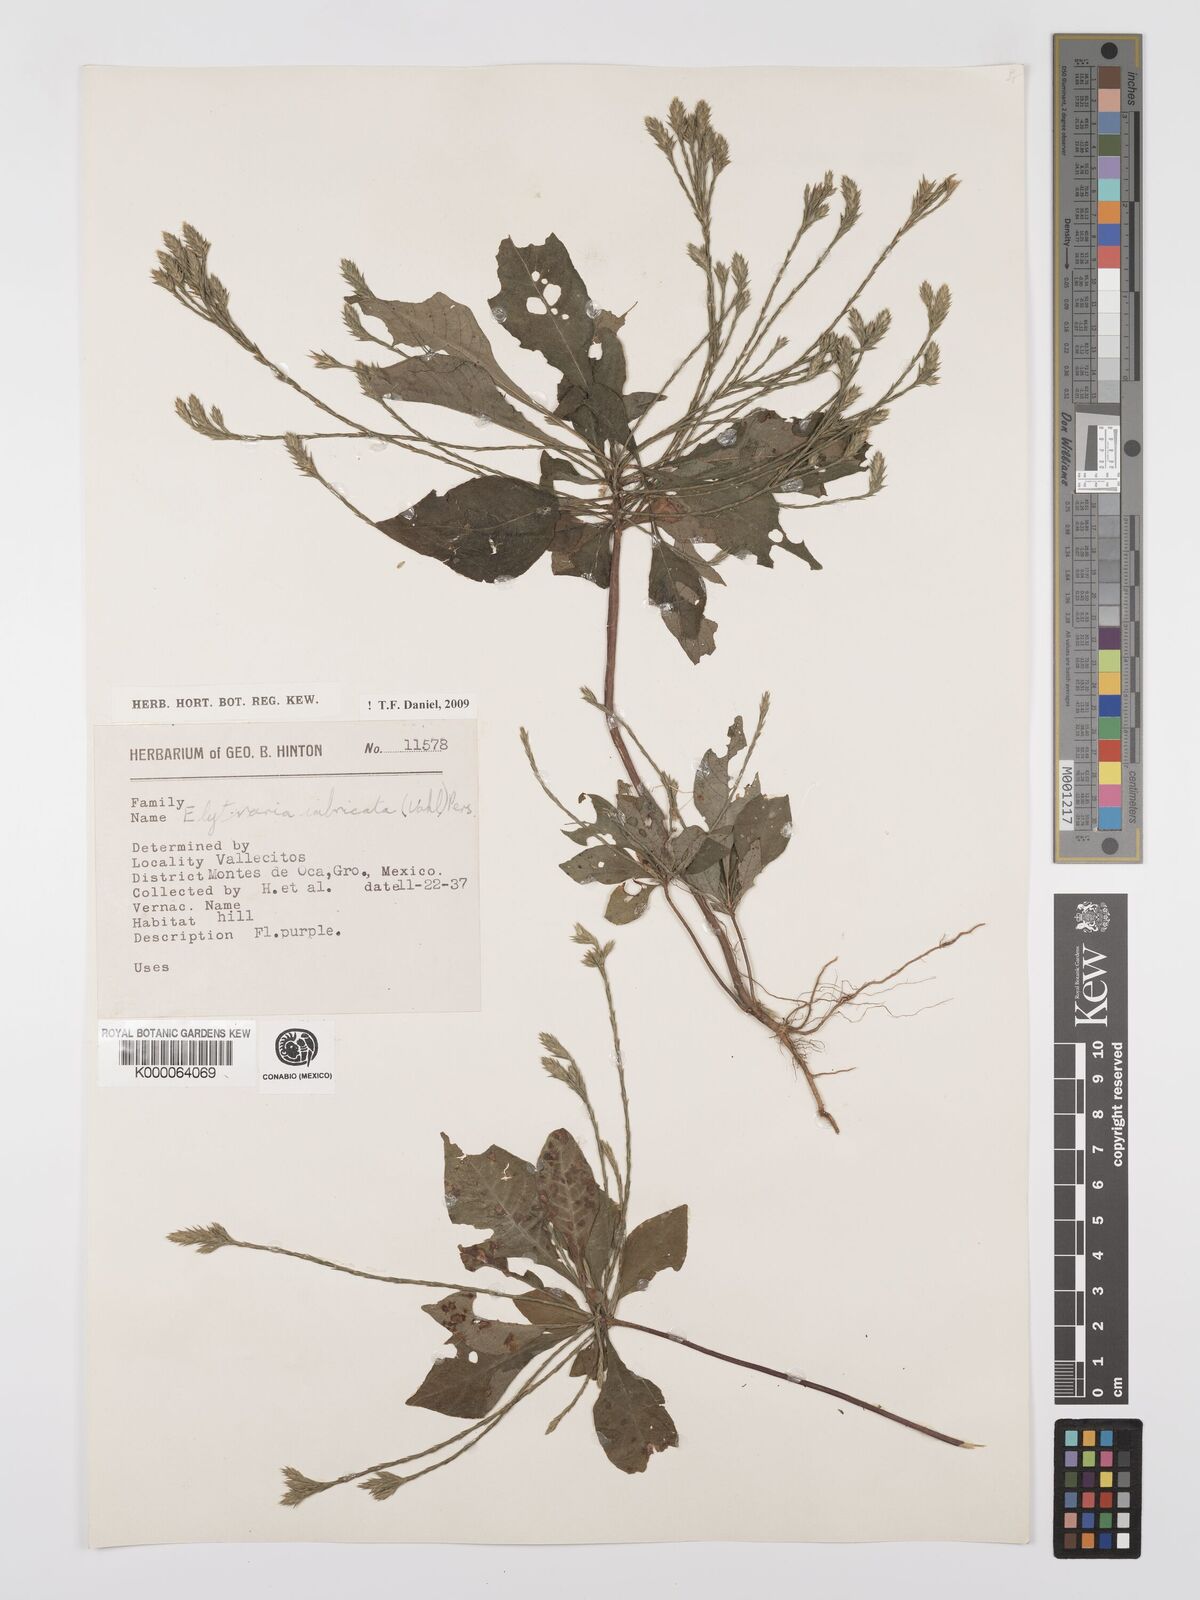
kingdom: Plantae
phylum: Tracheophyta
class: Magnoliopsida
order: Lamiales
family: Acanthaceae
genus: Elytraria
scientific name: Elytraria imbricata
